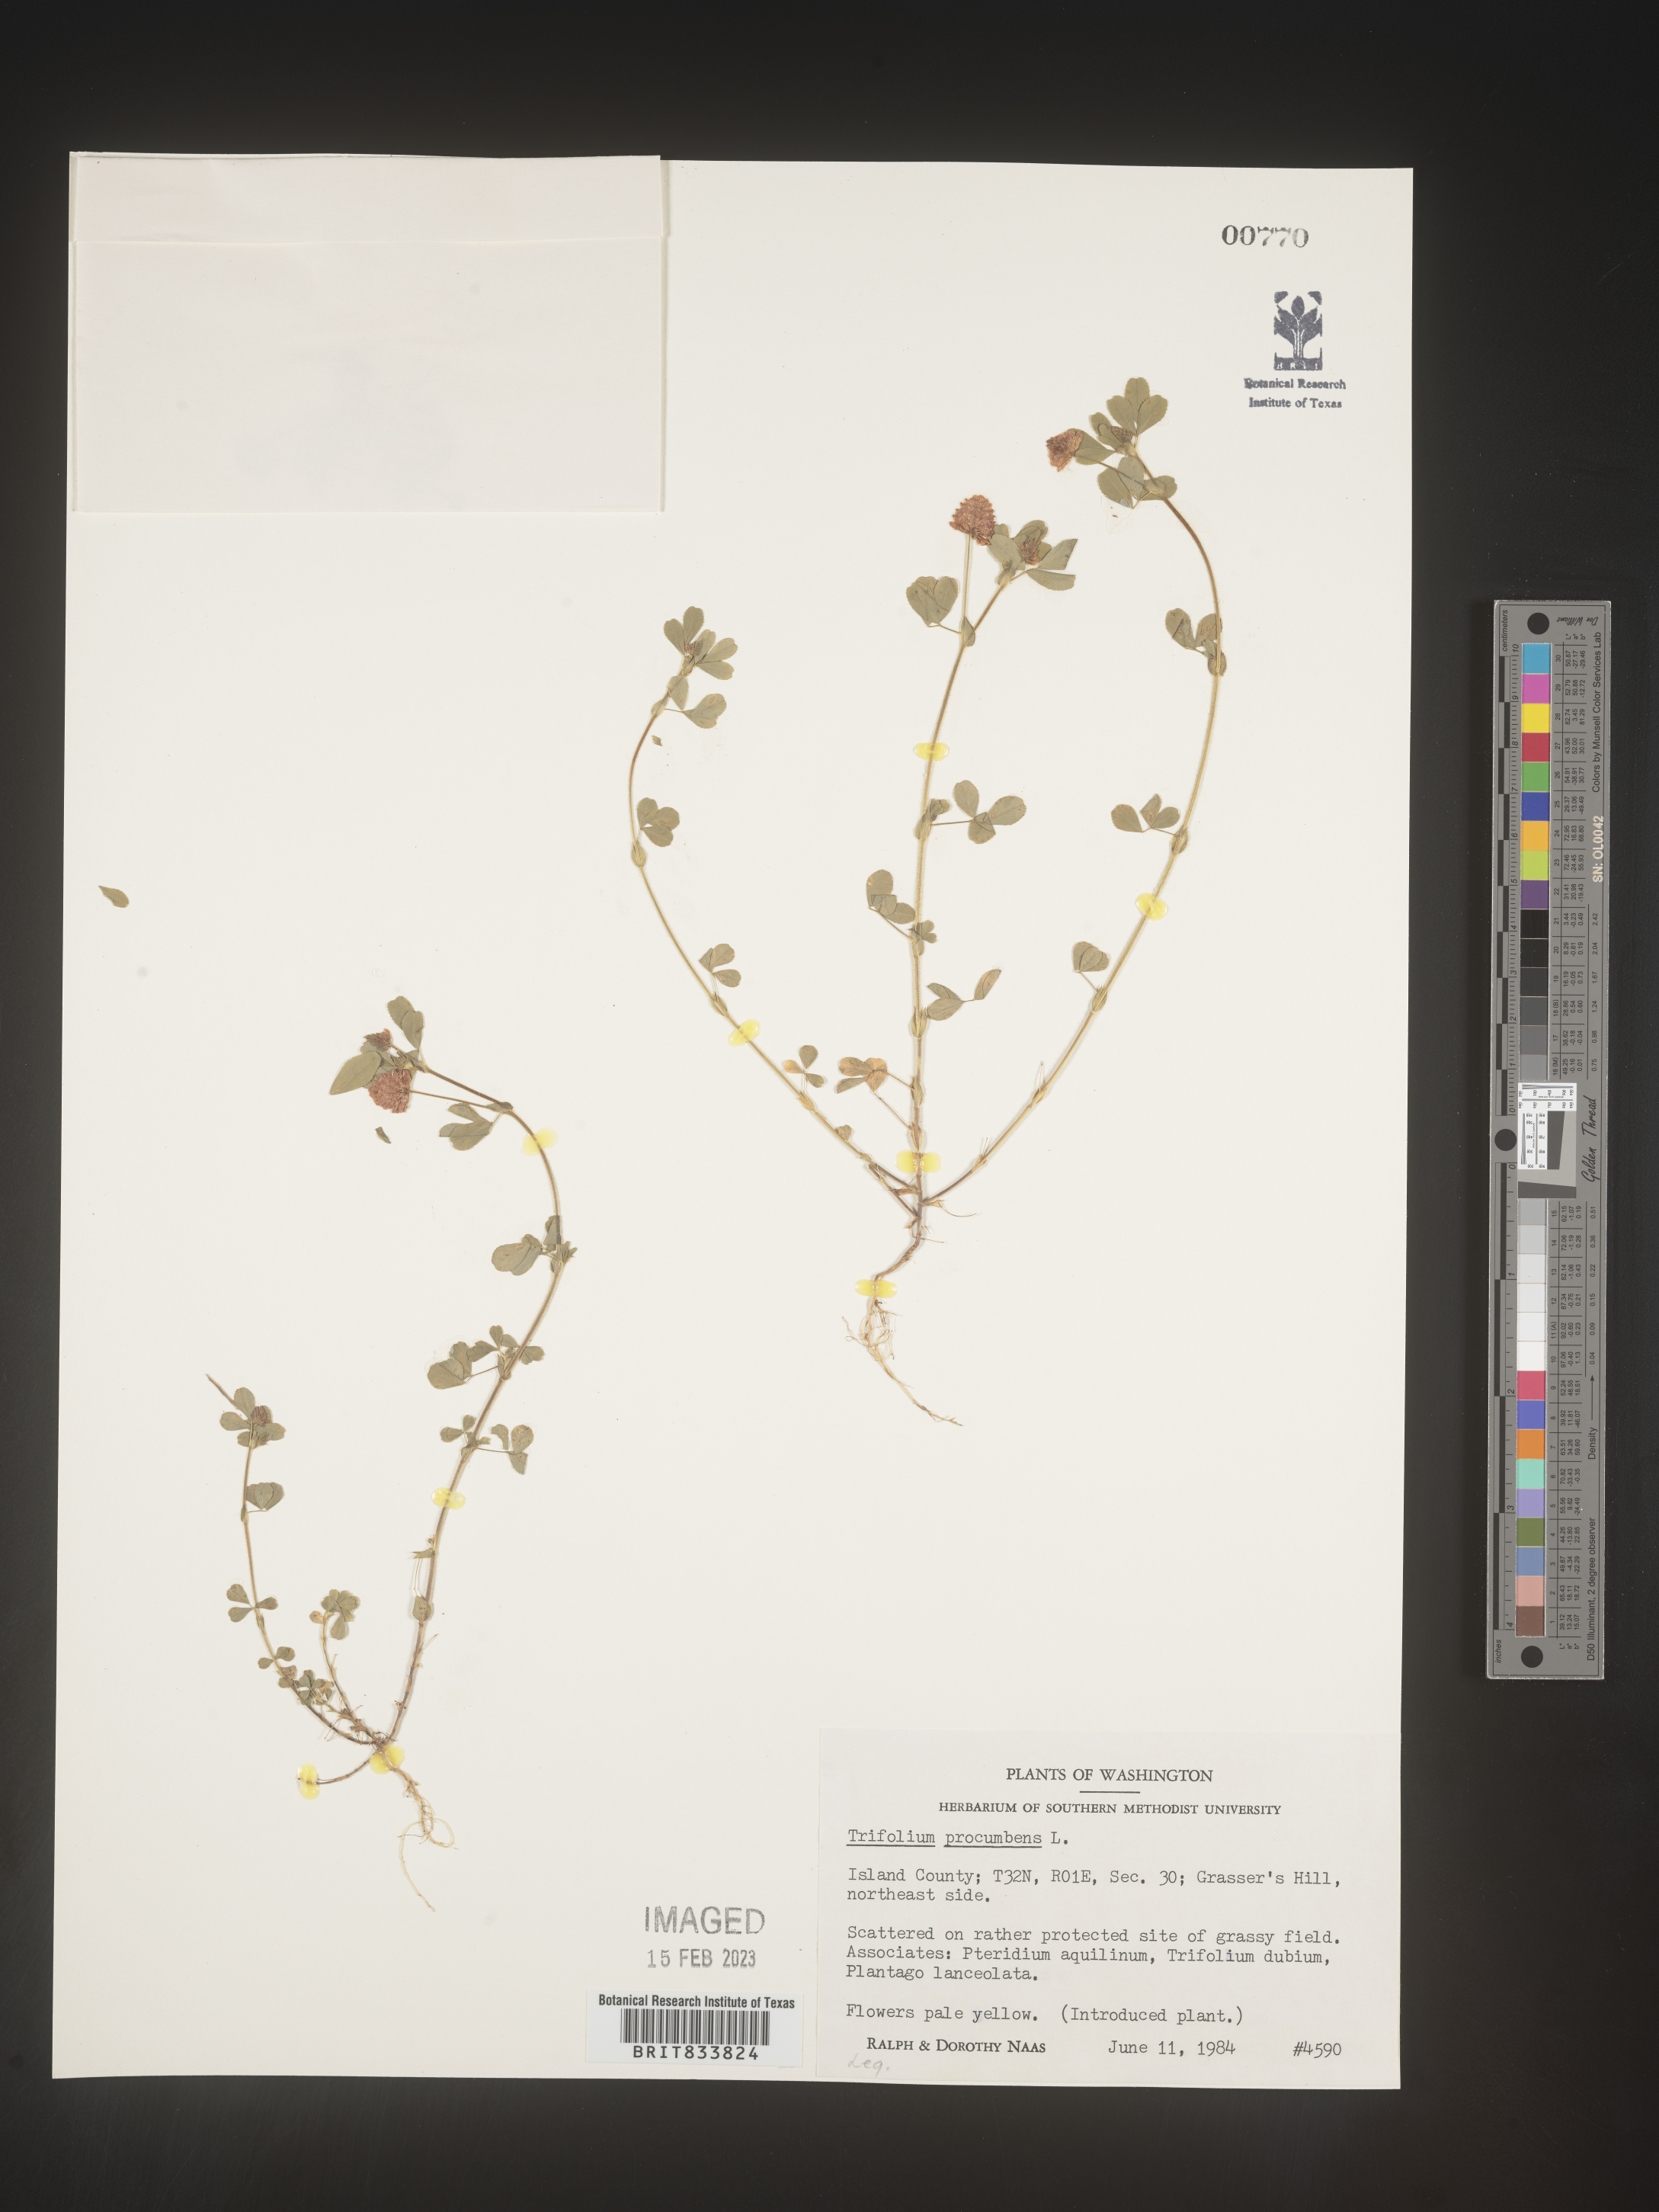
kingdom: Plantae
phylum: Tracheophyta
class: Magnoliopsida
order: Fabales
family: Fabaceae
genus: Trifolium
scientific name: Trifolium campestre
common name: Field clover
